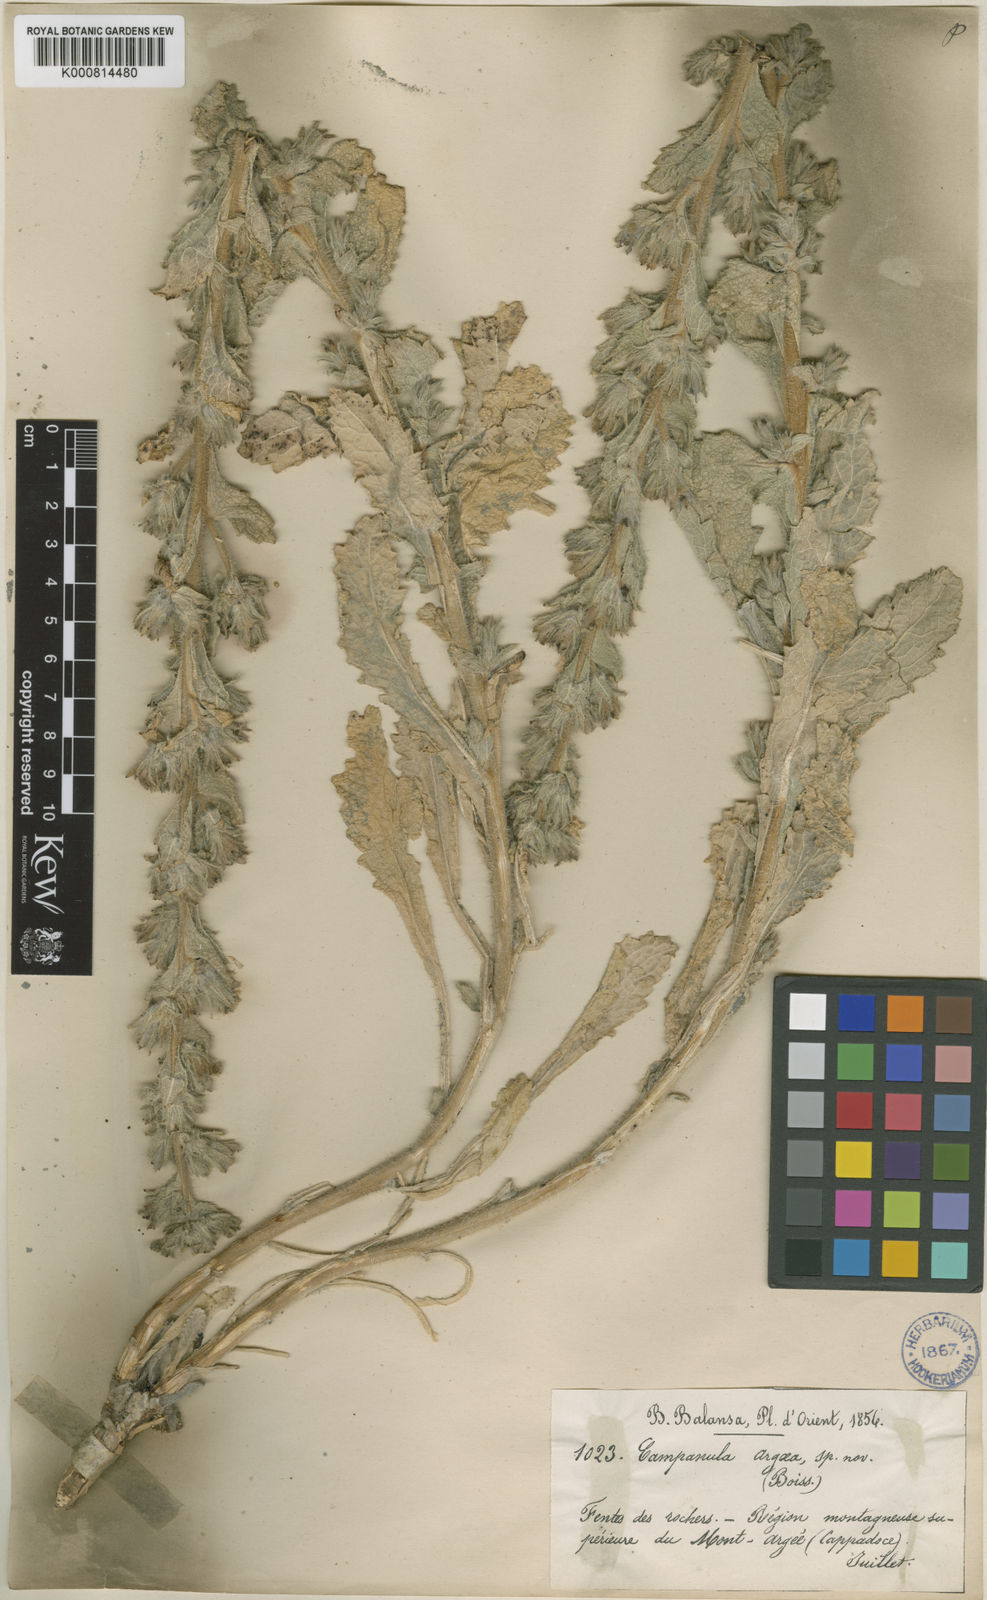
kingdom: Plantae
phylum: Tracheophyta
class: Magnoliopsida
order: Asterales
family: Campanulaceae
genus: Campanula
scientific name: Campanula ajugifolia
